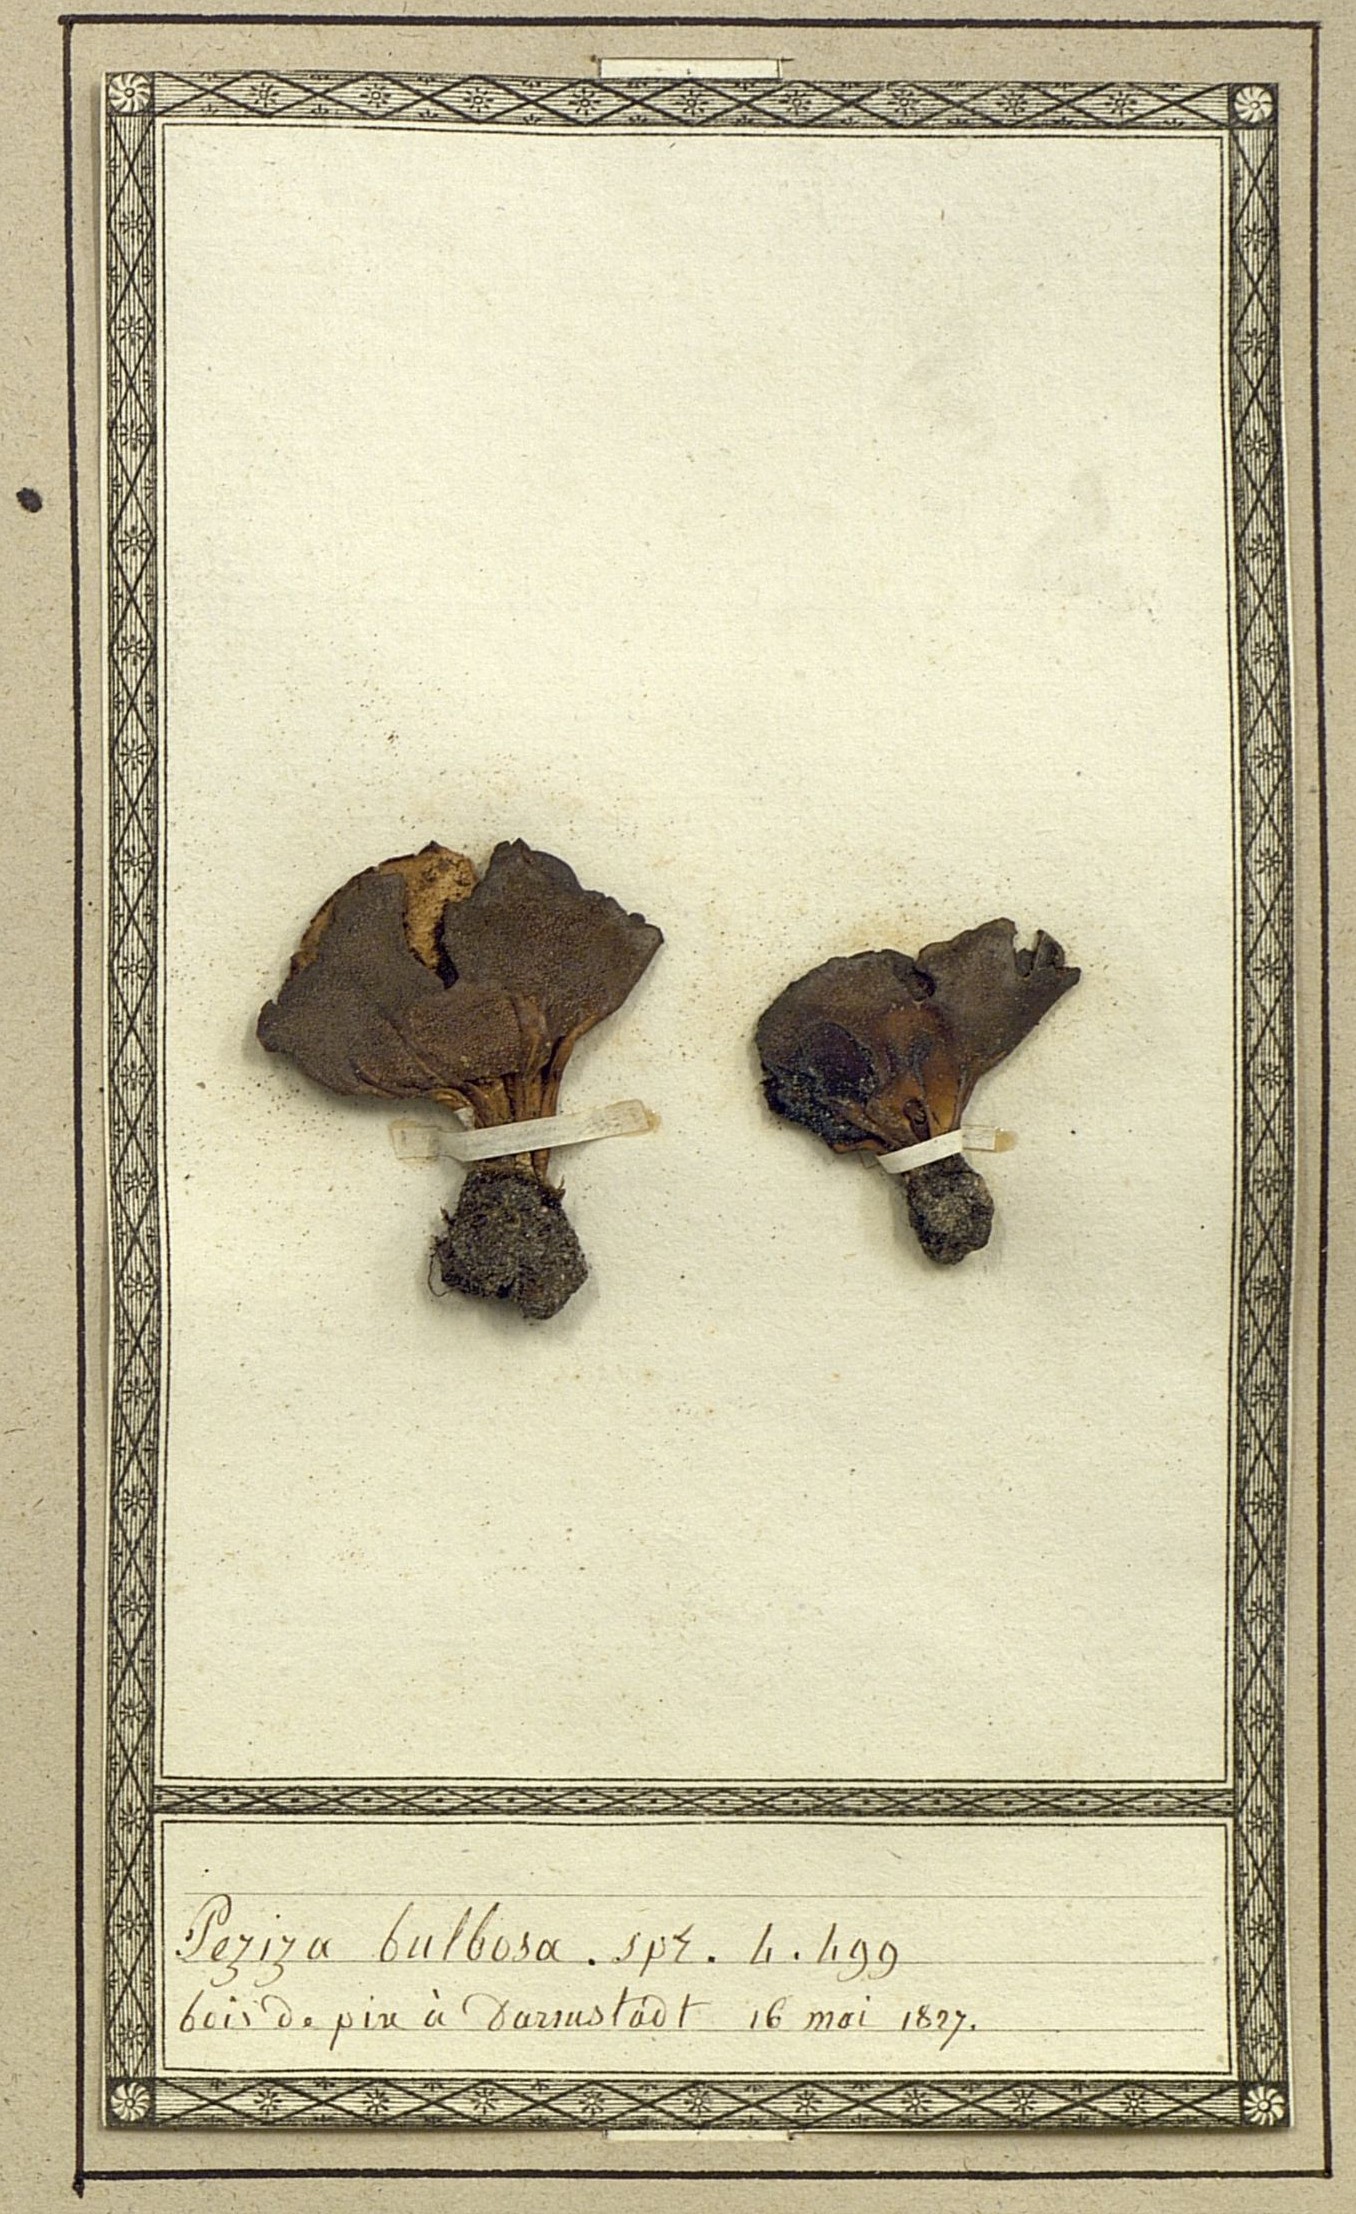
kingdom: Fungi
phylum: Ascomycota
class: Pezizomycetes
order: Pezizales
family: Helvellaceae
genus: Helvella
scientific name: Helvella macropus
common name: Felt saddle
